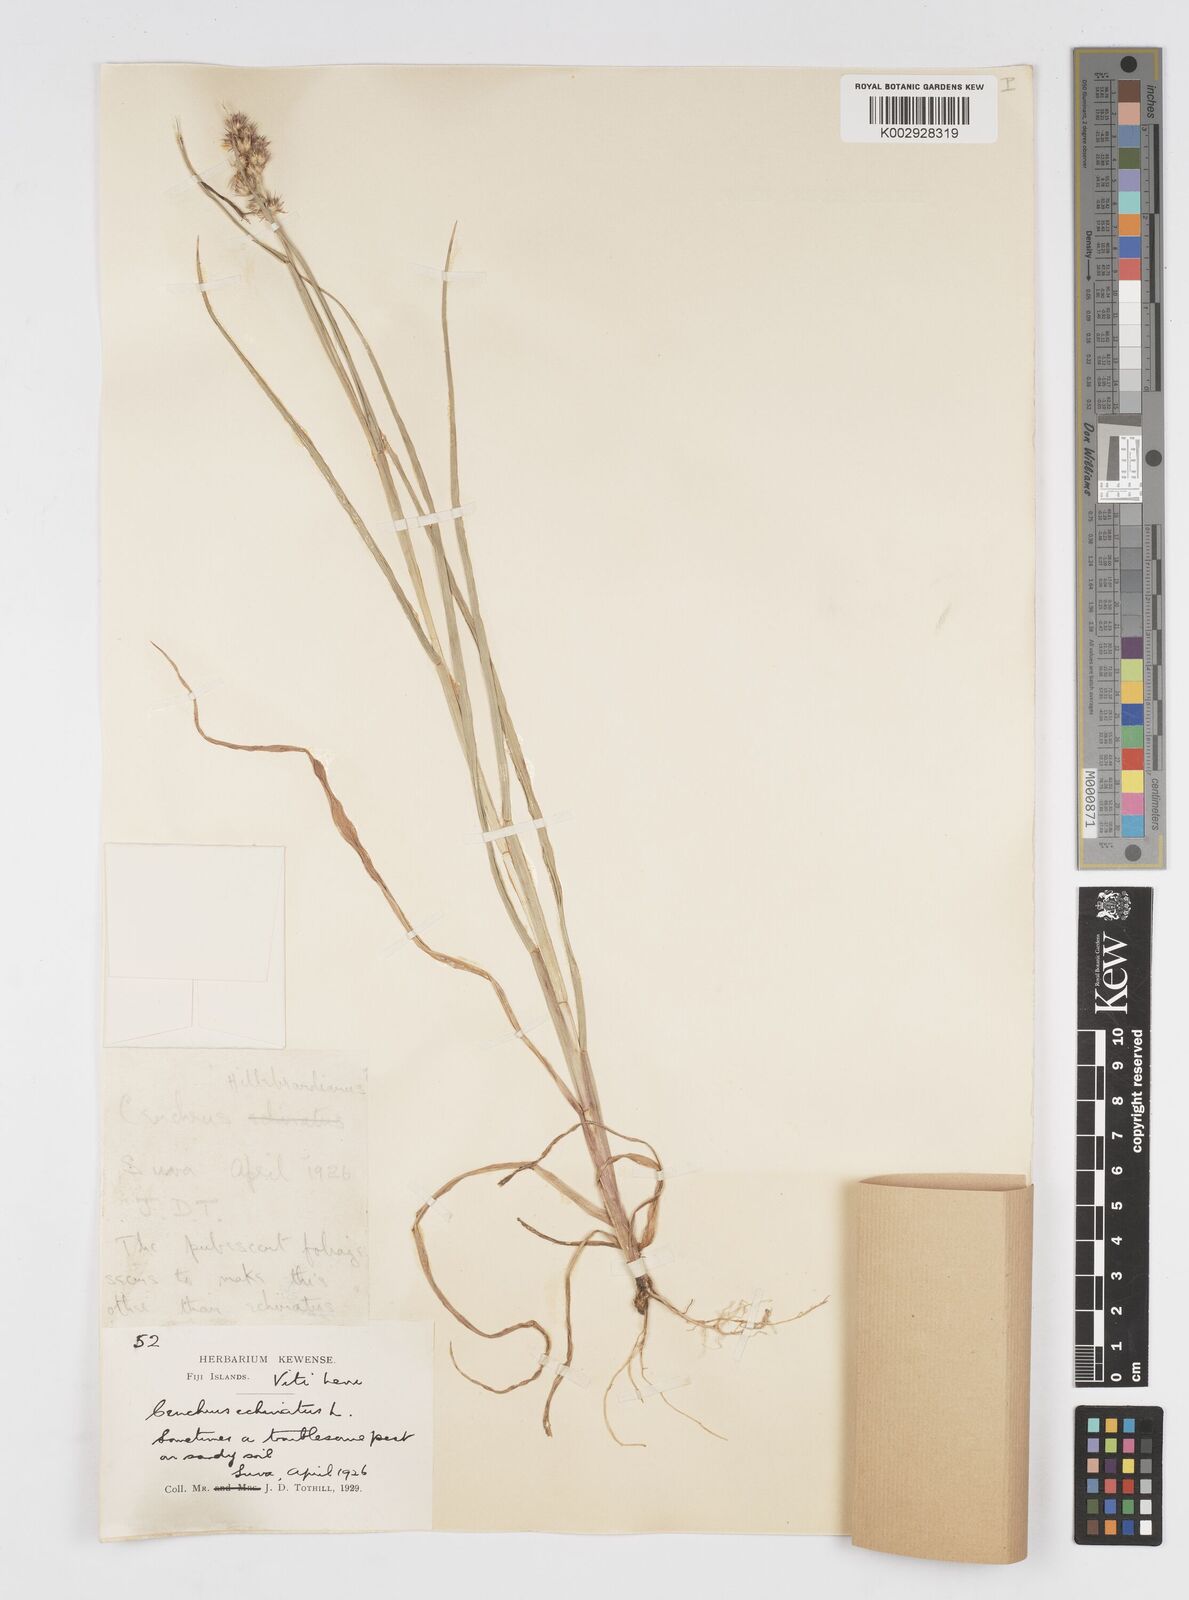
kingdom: Plantae
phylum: Tracheophyta
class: Liliopsida
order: Poales
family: Poaceae
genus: Cenchrus
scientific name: Cenchrus echinatus
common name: Southern sandbur
